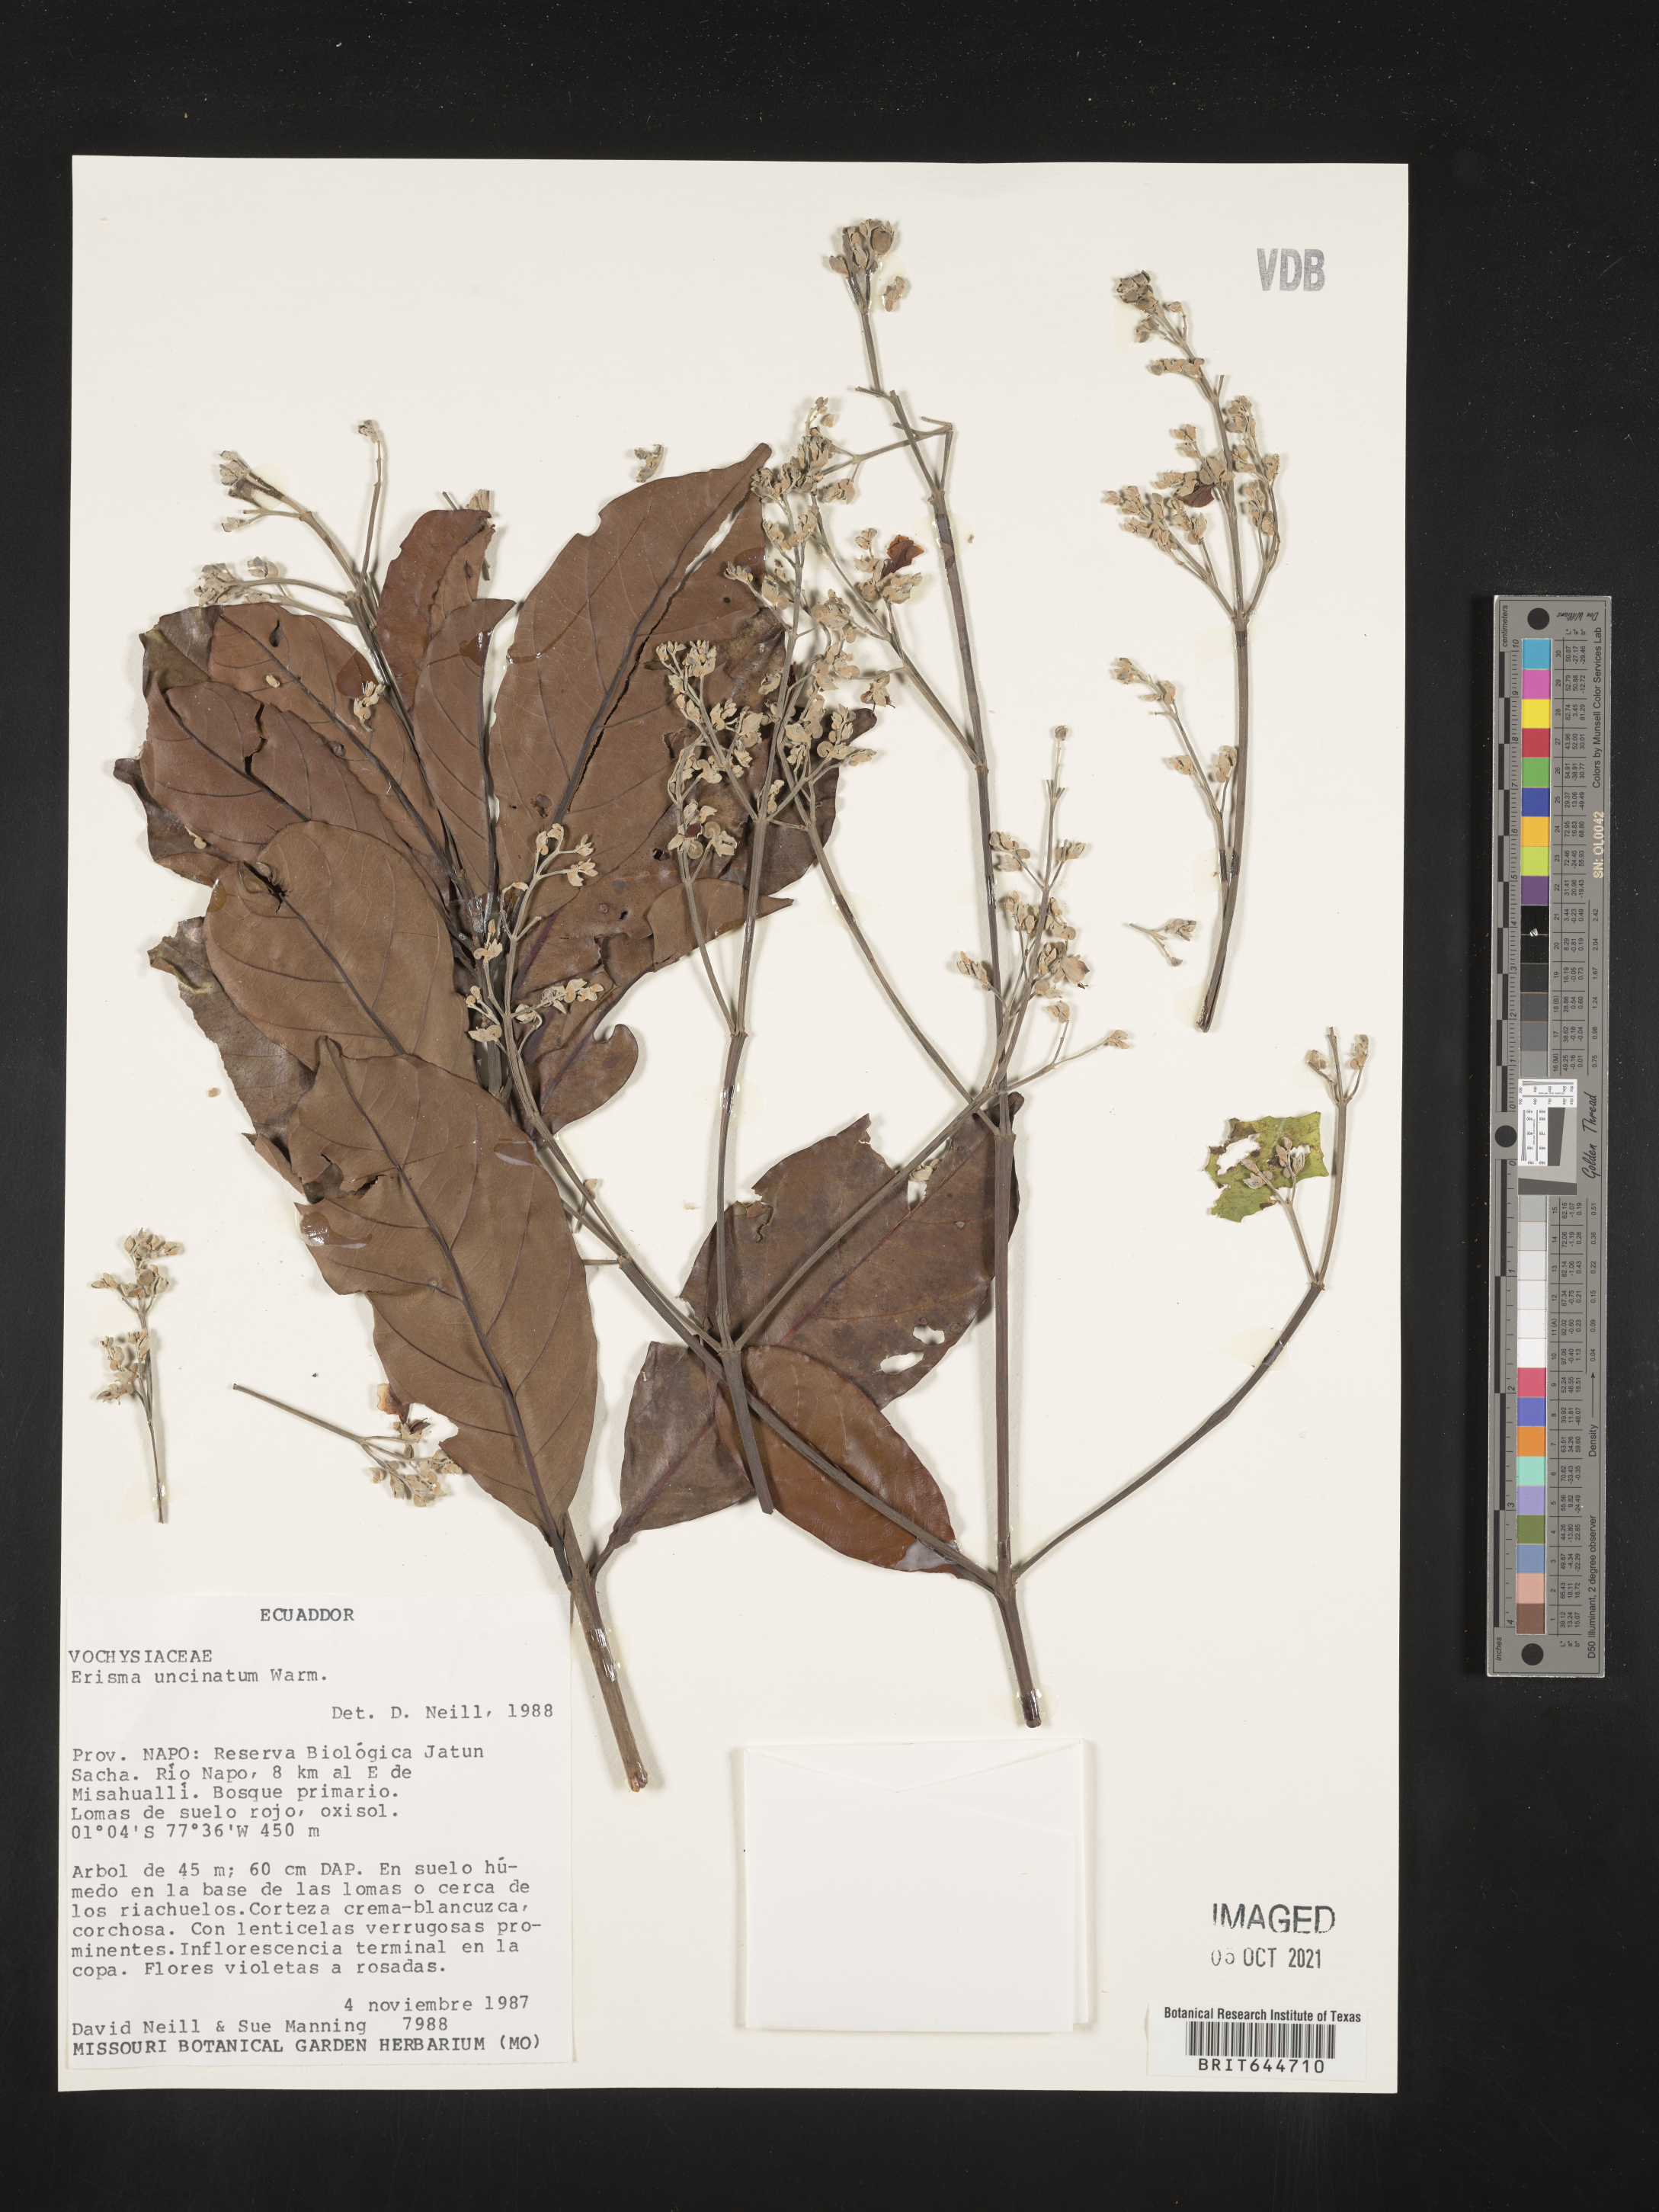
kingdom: Plantae
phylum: Tracheophyta
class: Magnoliopsida
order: Myrtales
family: Vochysiaceae
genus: Erisma
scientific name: Erisma
